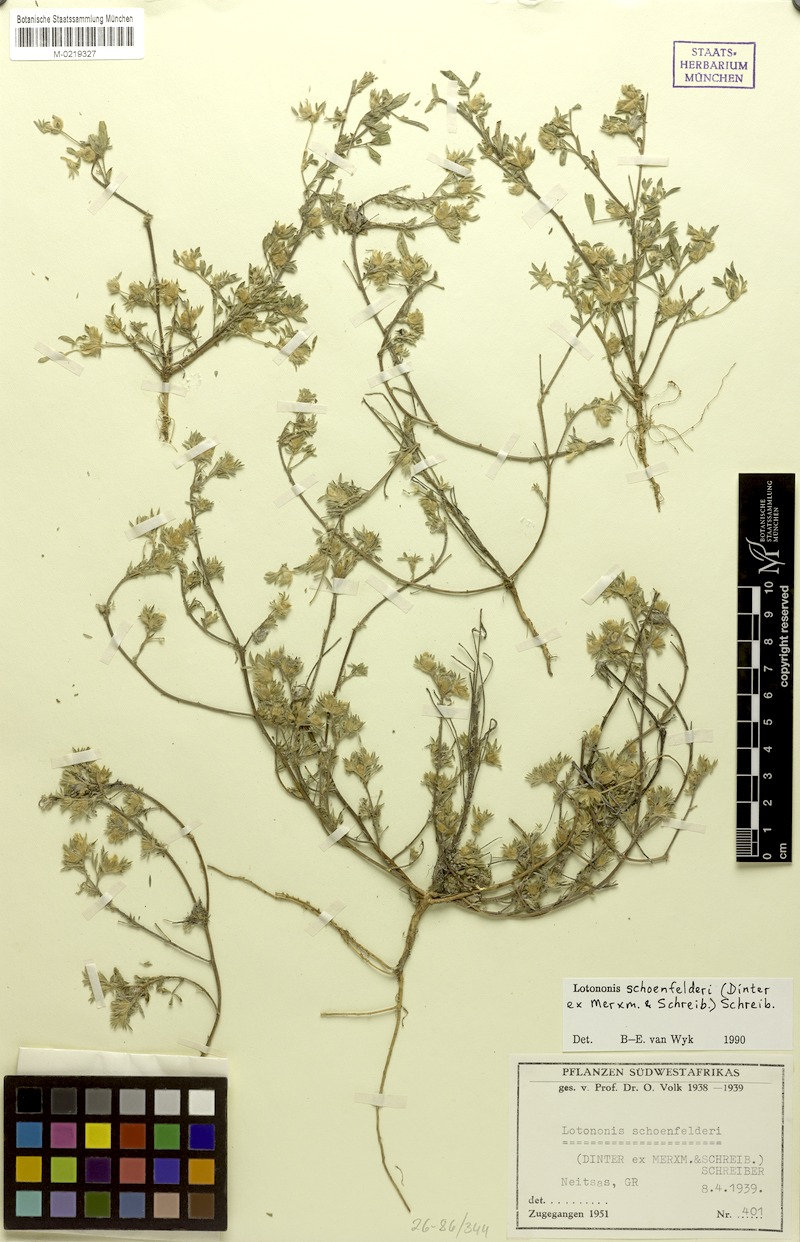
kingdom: Plantae
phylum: Tracheophyta
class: Magnoliopsida
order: Fabales
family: Fabaceae
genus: Leobordea
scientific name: Leobordea schoenfelderi
